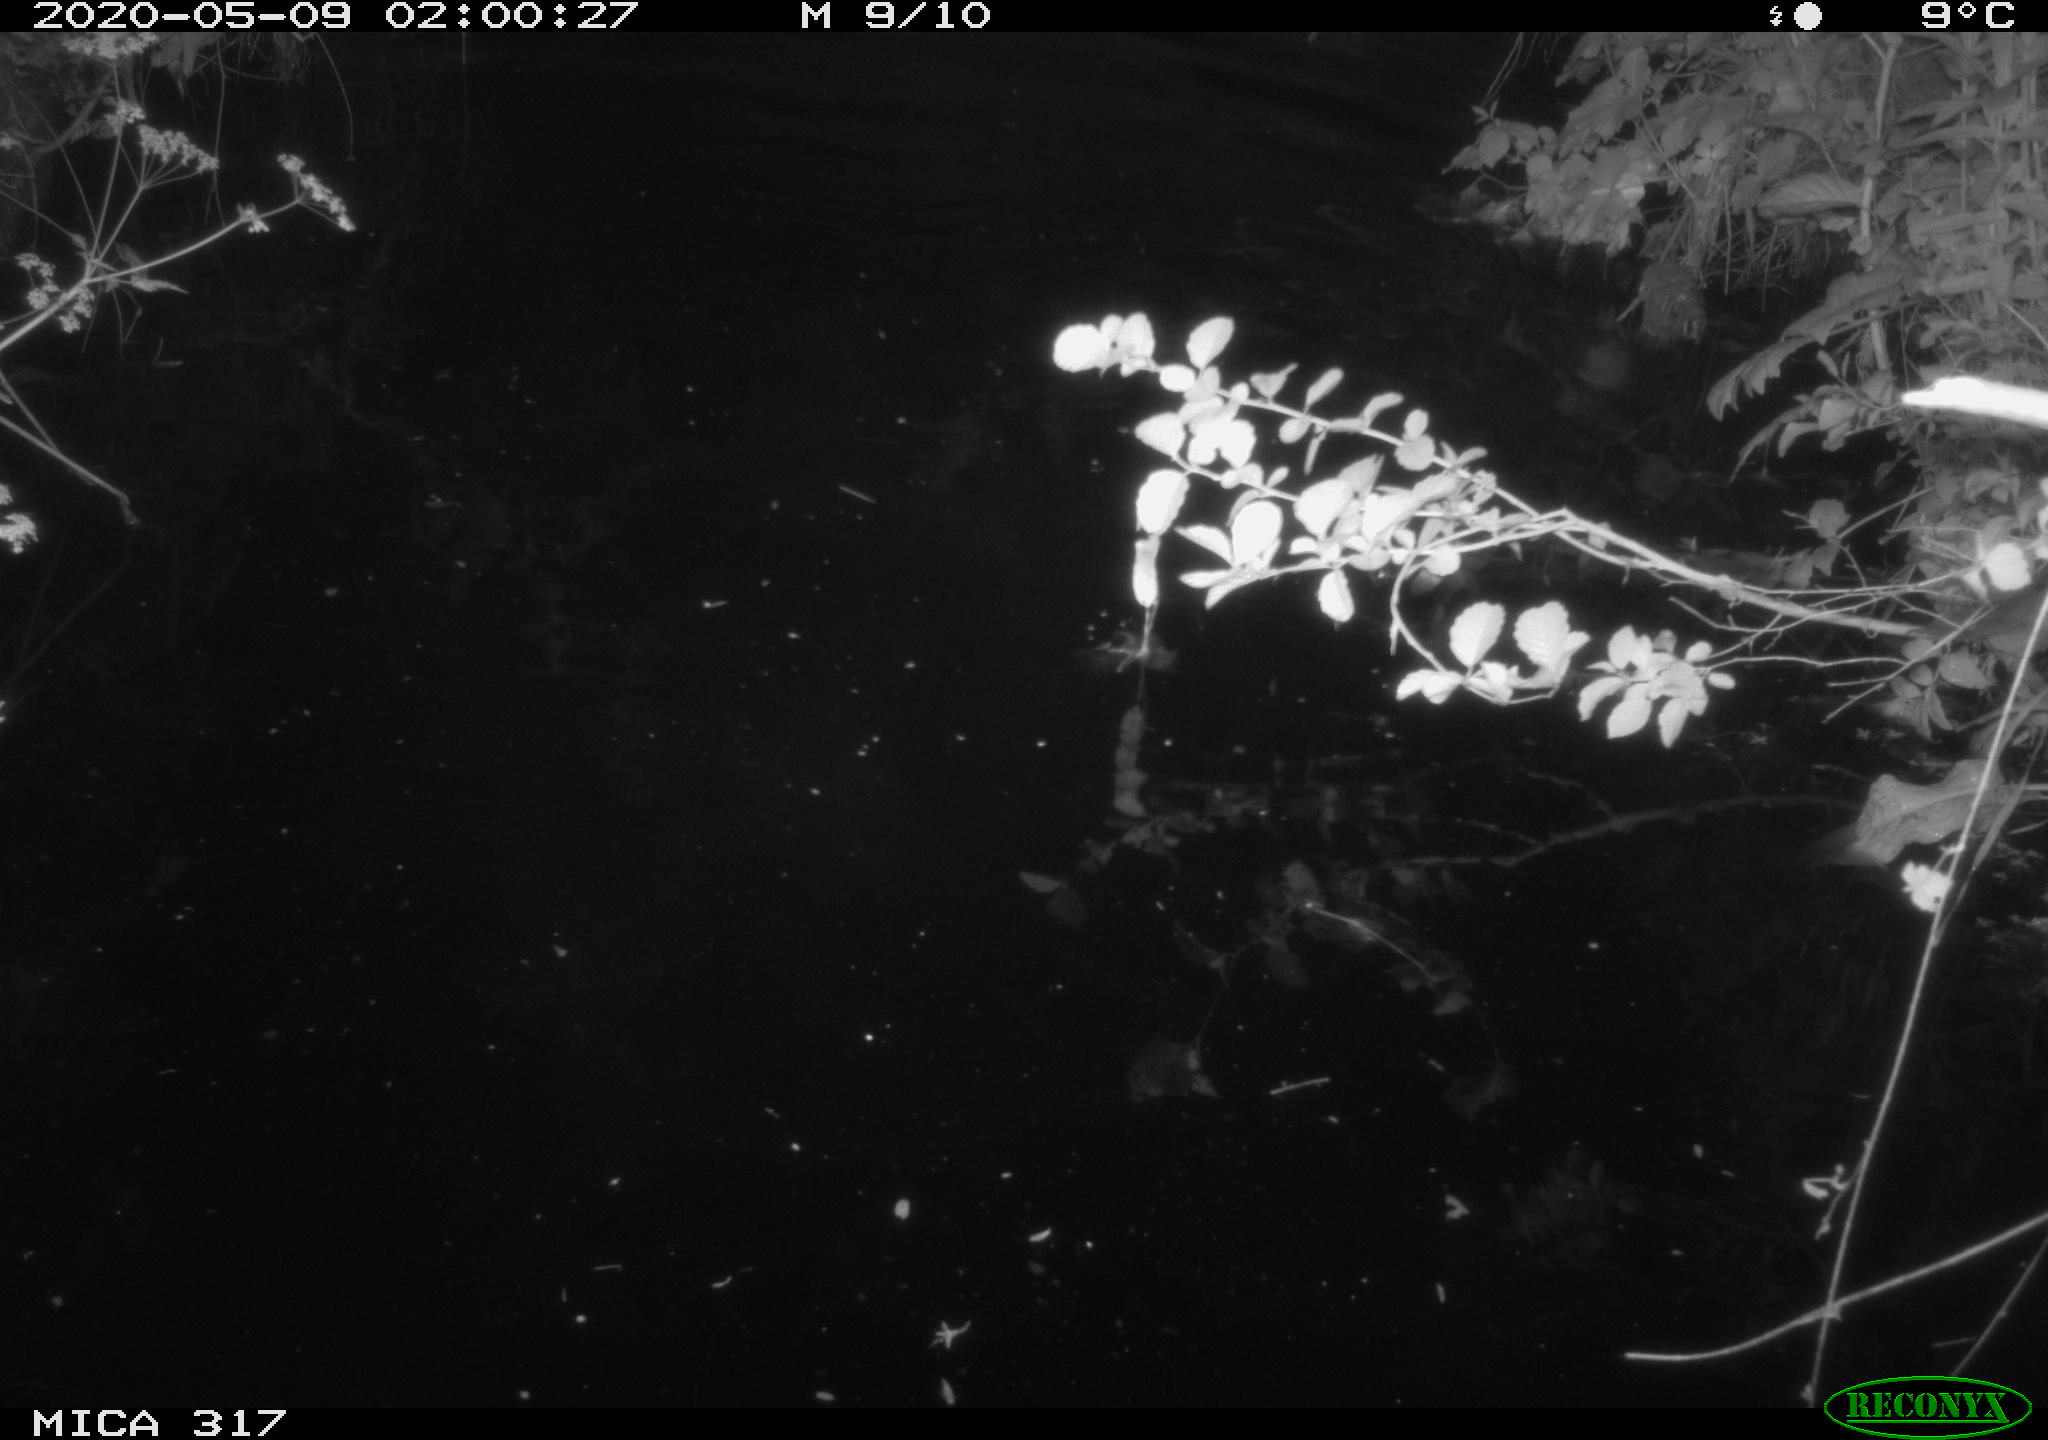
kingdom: Animalia
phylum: Chordata
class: Aves
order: Anseriformes
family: Anatidae
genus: Anas
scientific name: Anas platyrhynchos
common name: Mallard
